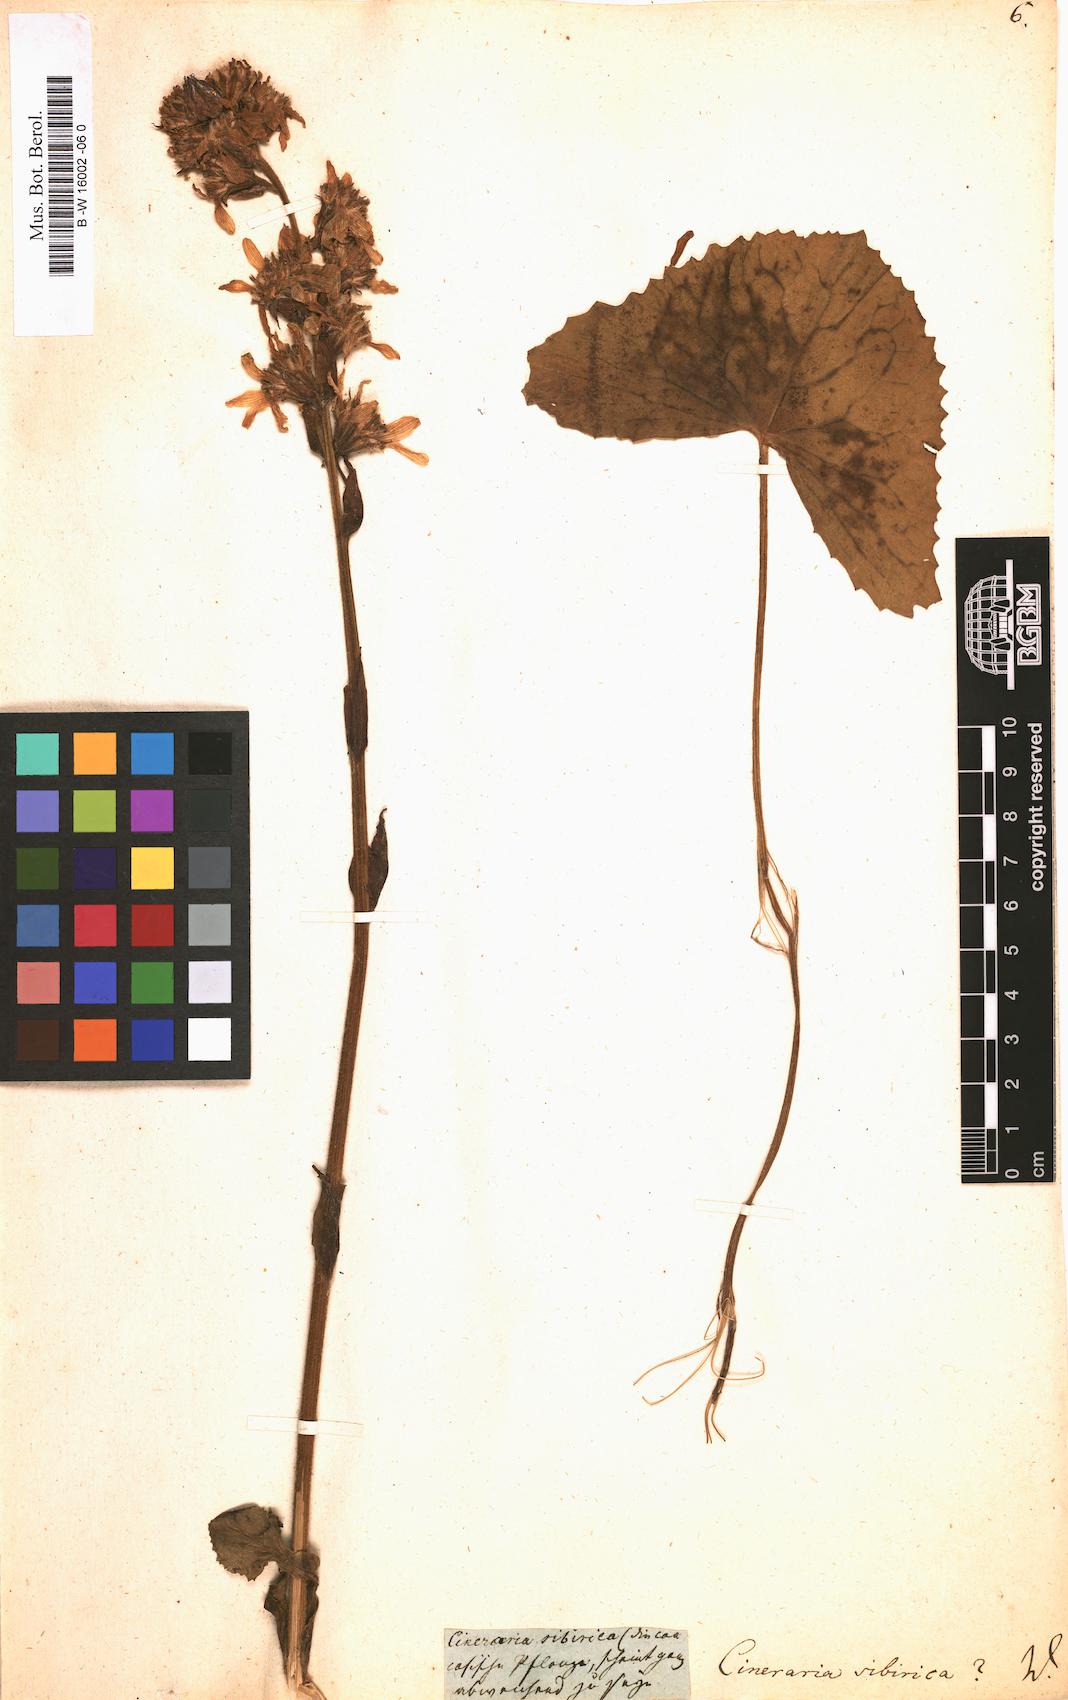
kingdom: Plantae
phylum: Tracheophyta
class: Magnoliopsida
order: Asterales
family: Asteraceae
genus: Ligularia
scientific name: Ligularia sibirica
